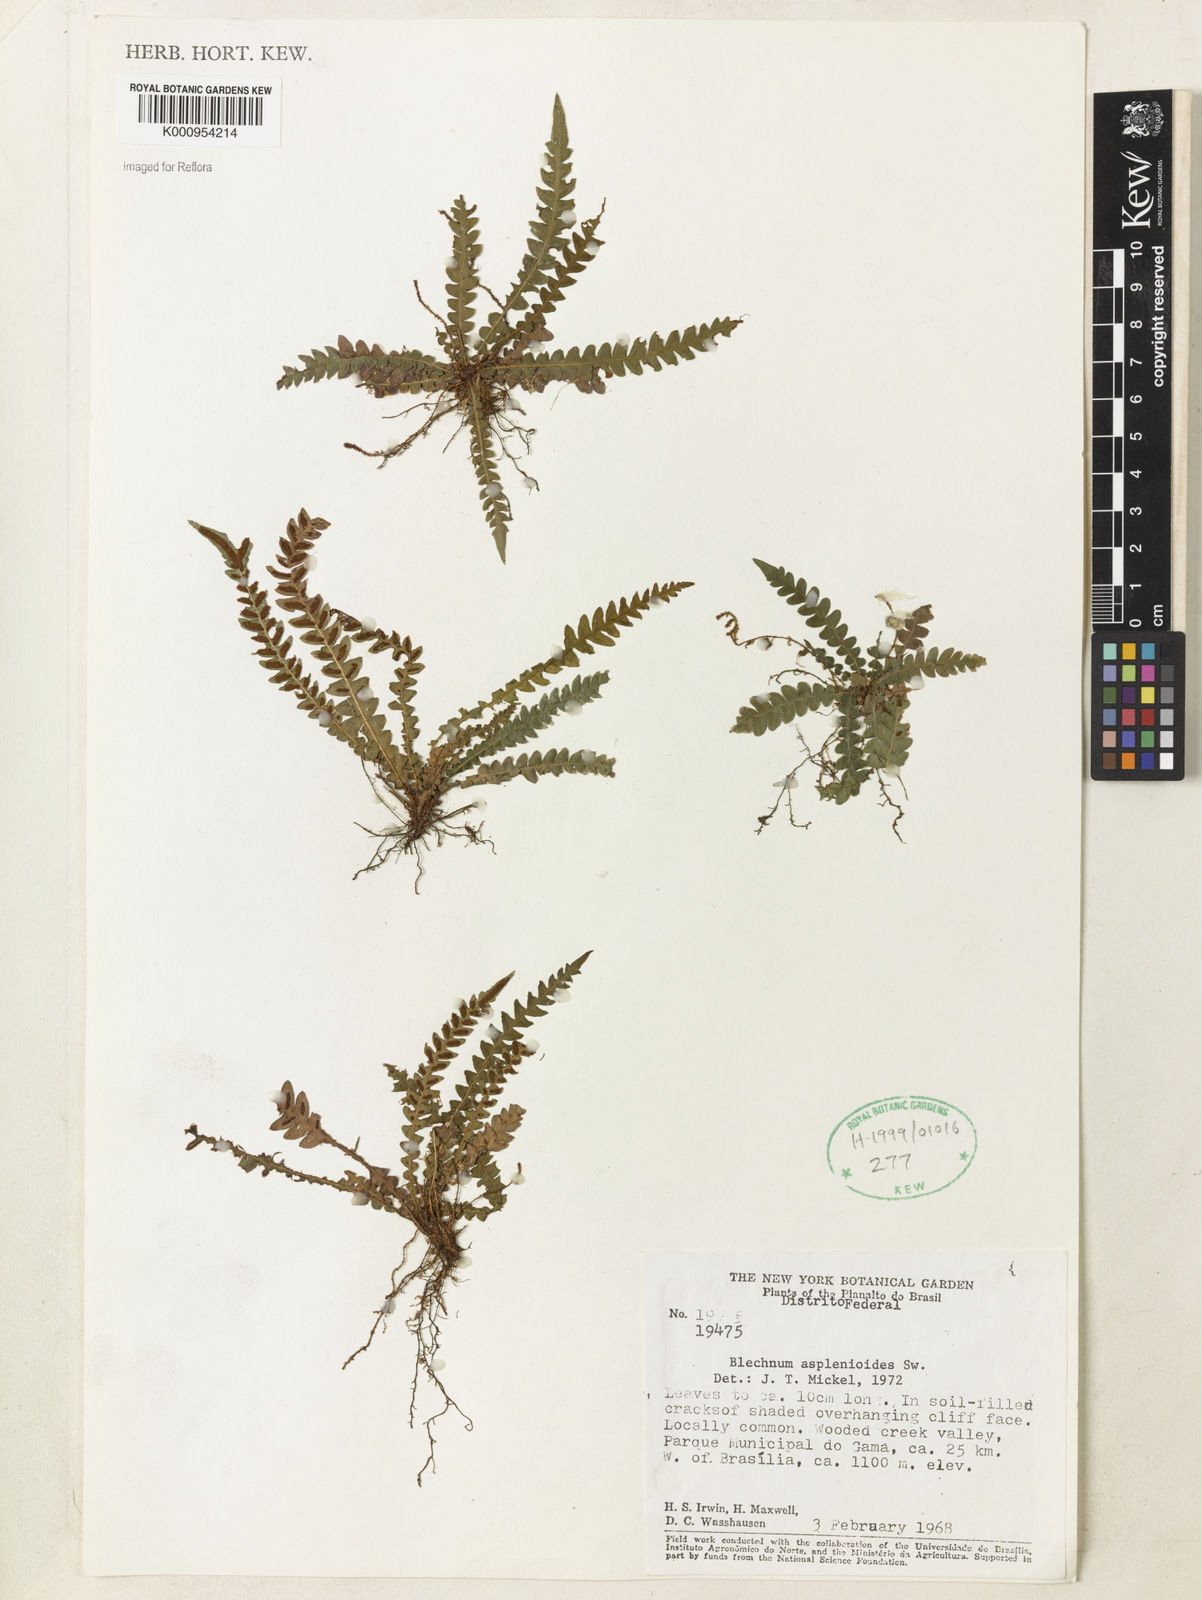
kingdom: Plantae
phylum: Tracheophyta
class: Polypodiopsida
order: Polypodiales
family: Blechnaceae
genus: Blechnum
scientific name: Blechnum asplenioides
